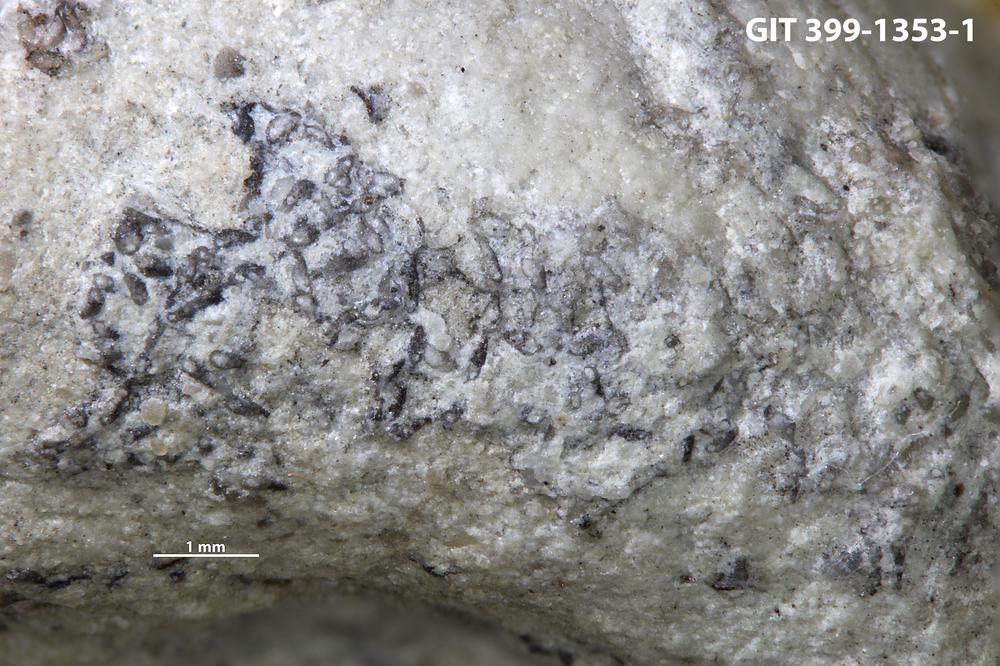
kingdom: Animalia
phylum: Bryozoa
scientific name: Bryozoa
